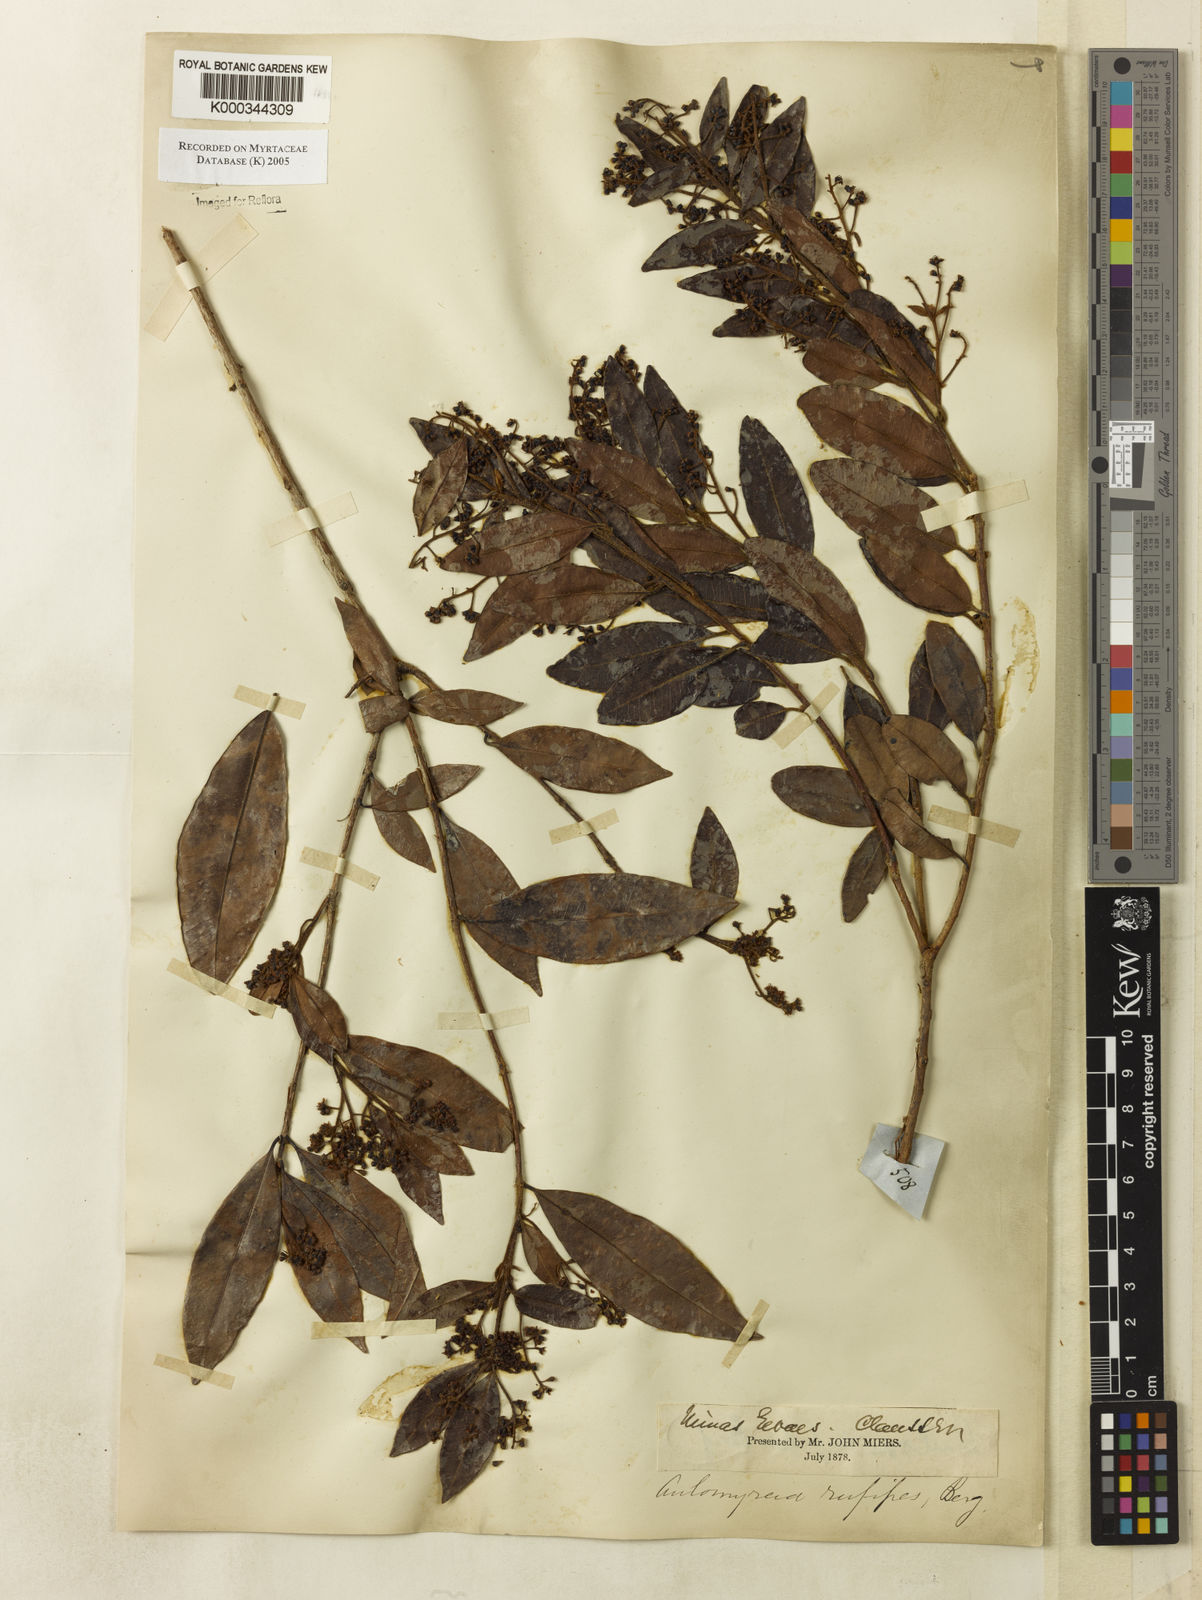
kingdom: Plantae
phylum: Tracheophyta
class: Magnoliopsida
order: Myrtales
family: Myrtaceae
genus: Myrcia
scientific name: Myrcia rufipes
